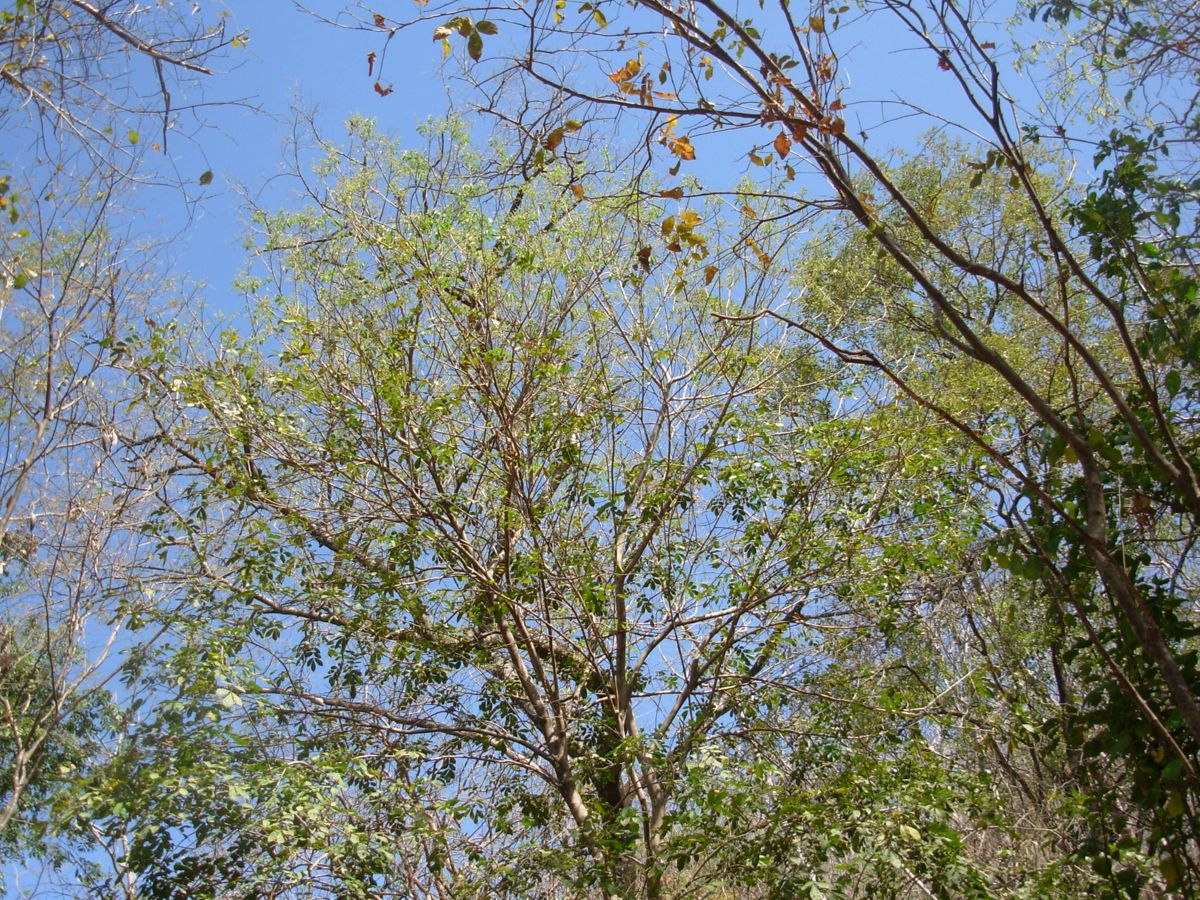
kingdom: Plantae
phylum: Tracheophyta
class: Magnoliopsida
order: Sapindales
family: Meliaceae
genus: Trichilia
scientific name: Trichilia martiana
